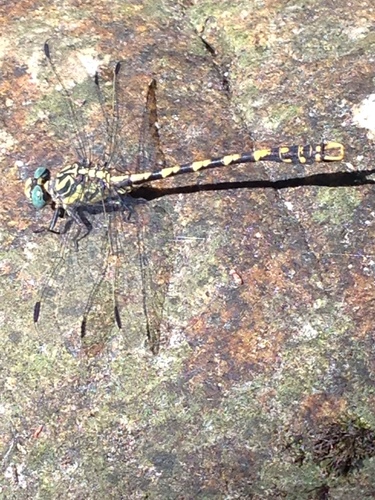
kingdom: Animalia
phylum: Arthropoda
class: Insecta
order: Odonata
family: Gomphidae
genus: Onychogomphus
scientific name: Onychogomphus uncatus
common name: Large pincertail
